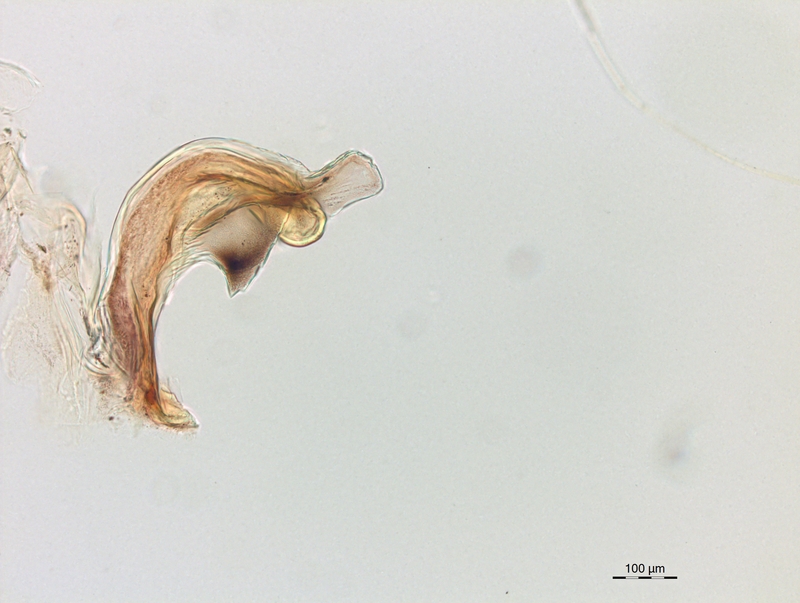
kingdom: Animalia
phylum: Arthropoda
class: Diplopoda
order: Chordeumatida
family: Craspedosomatidae
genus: Craspedosoma
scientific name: Craspedosoma rawlinsii
